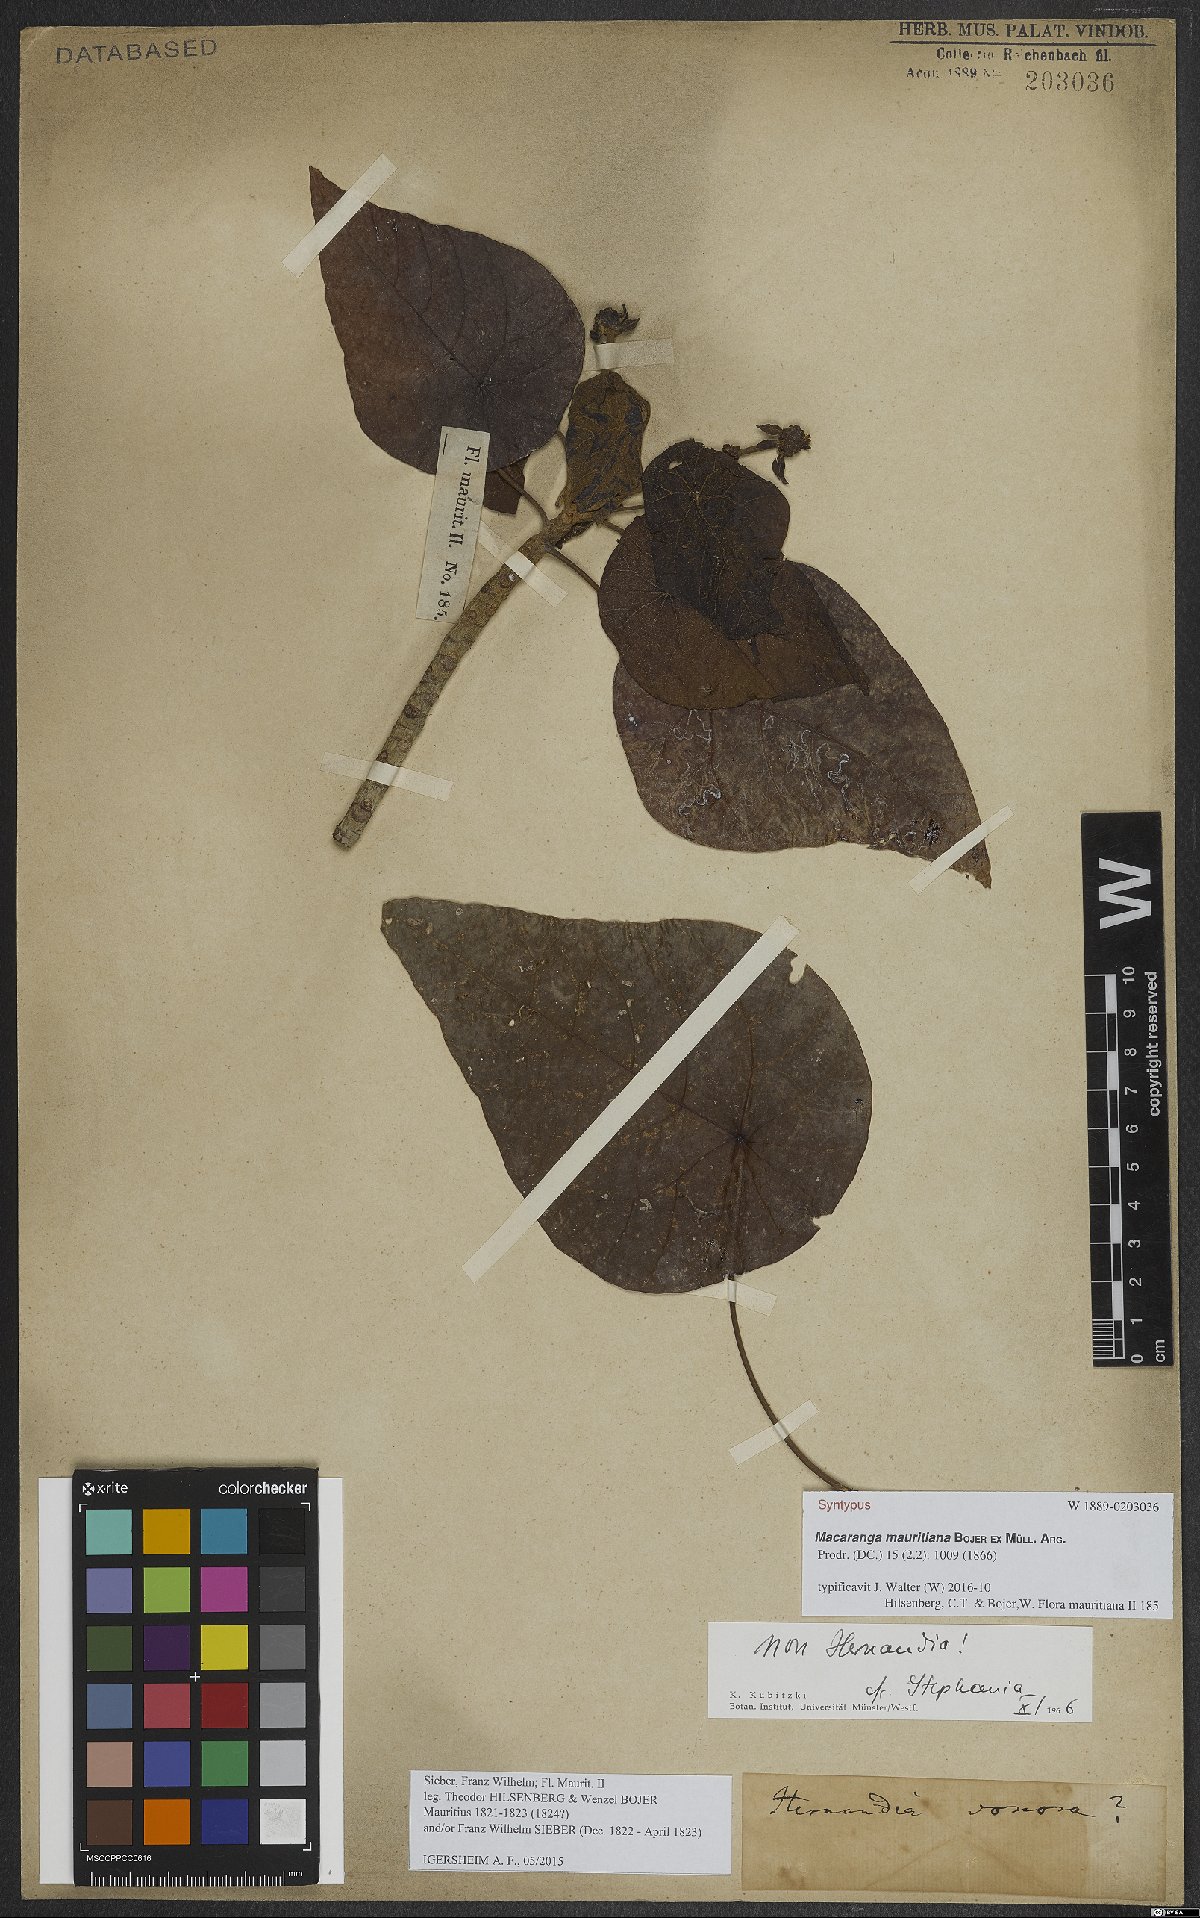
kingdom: Plantae
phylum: Tracheophyta
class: Magnoliopsida
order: Malpighiales
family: Euphorbiaceae
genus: Macaranga
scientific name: Macaranga mauritiana
